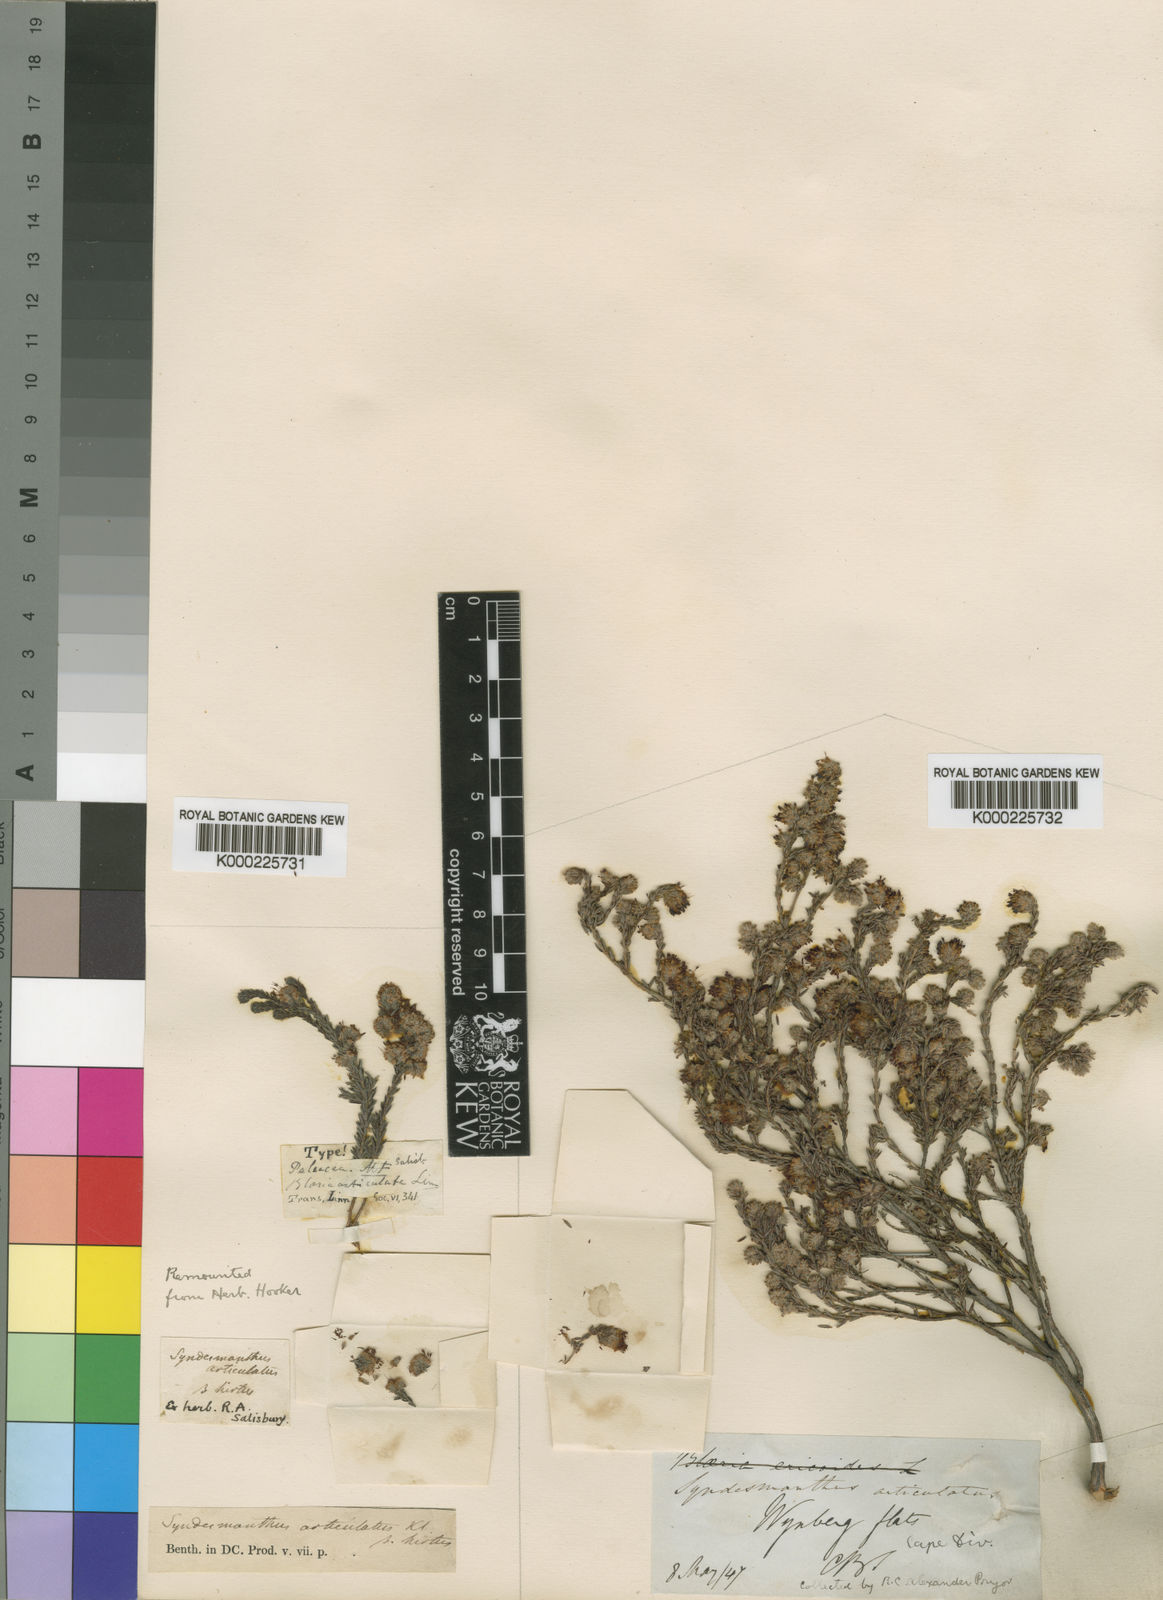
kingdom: Plantae
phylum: Tracheophyta
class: Magnoliopsida
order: Ericales
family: Ericaceae
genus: Erica
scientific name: Erica similis
